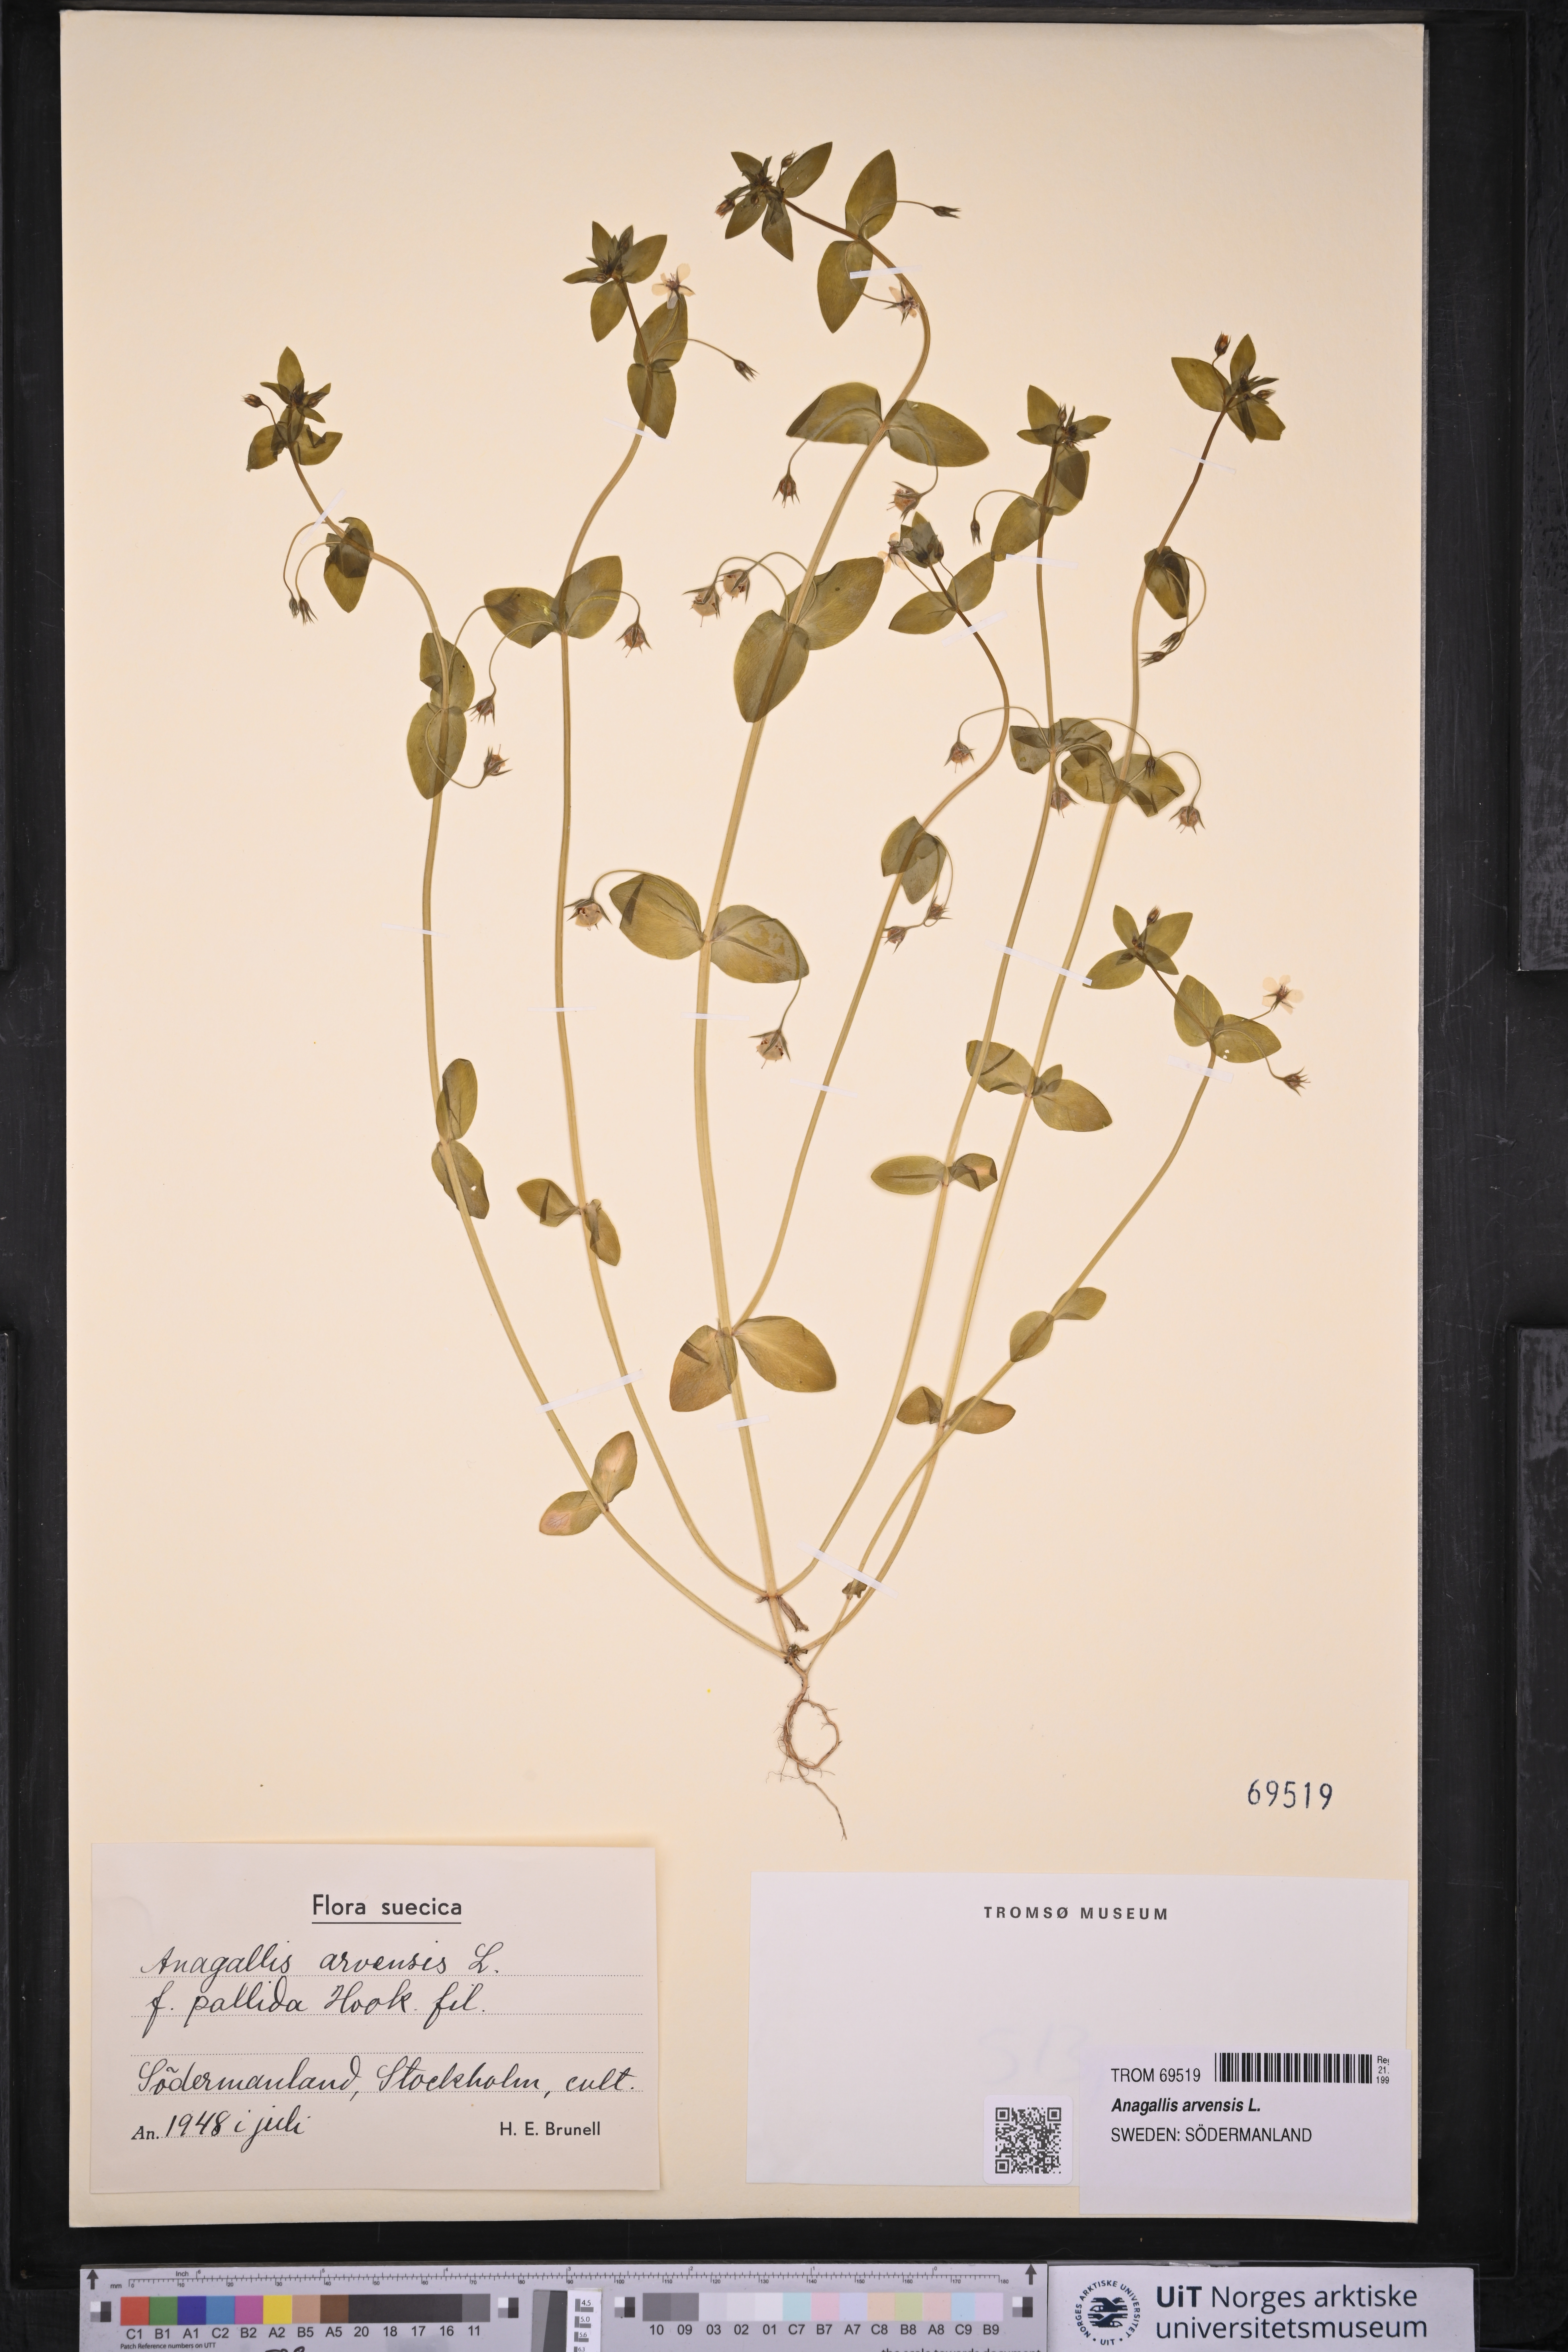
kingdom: Plantae
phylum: Tracheophyta
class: Magnoliopsida
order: Ericales
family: Primulaceae
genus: Lysimachia
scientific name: Lysimachia arvensis
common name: Scarlet pimpernel
